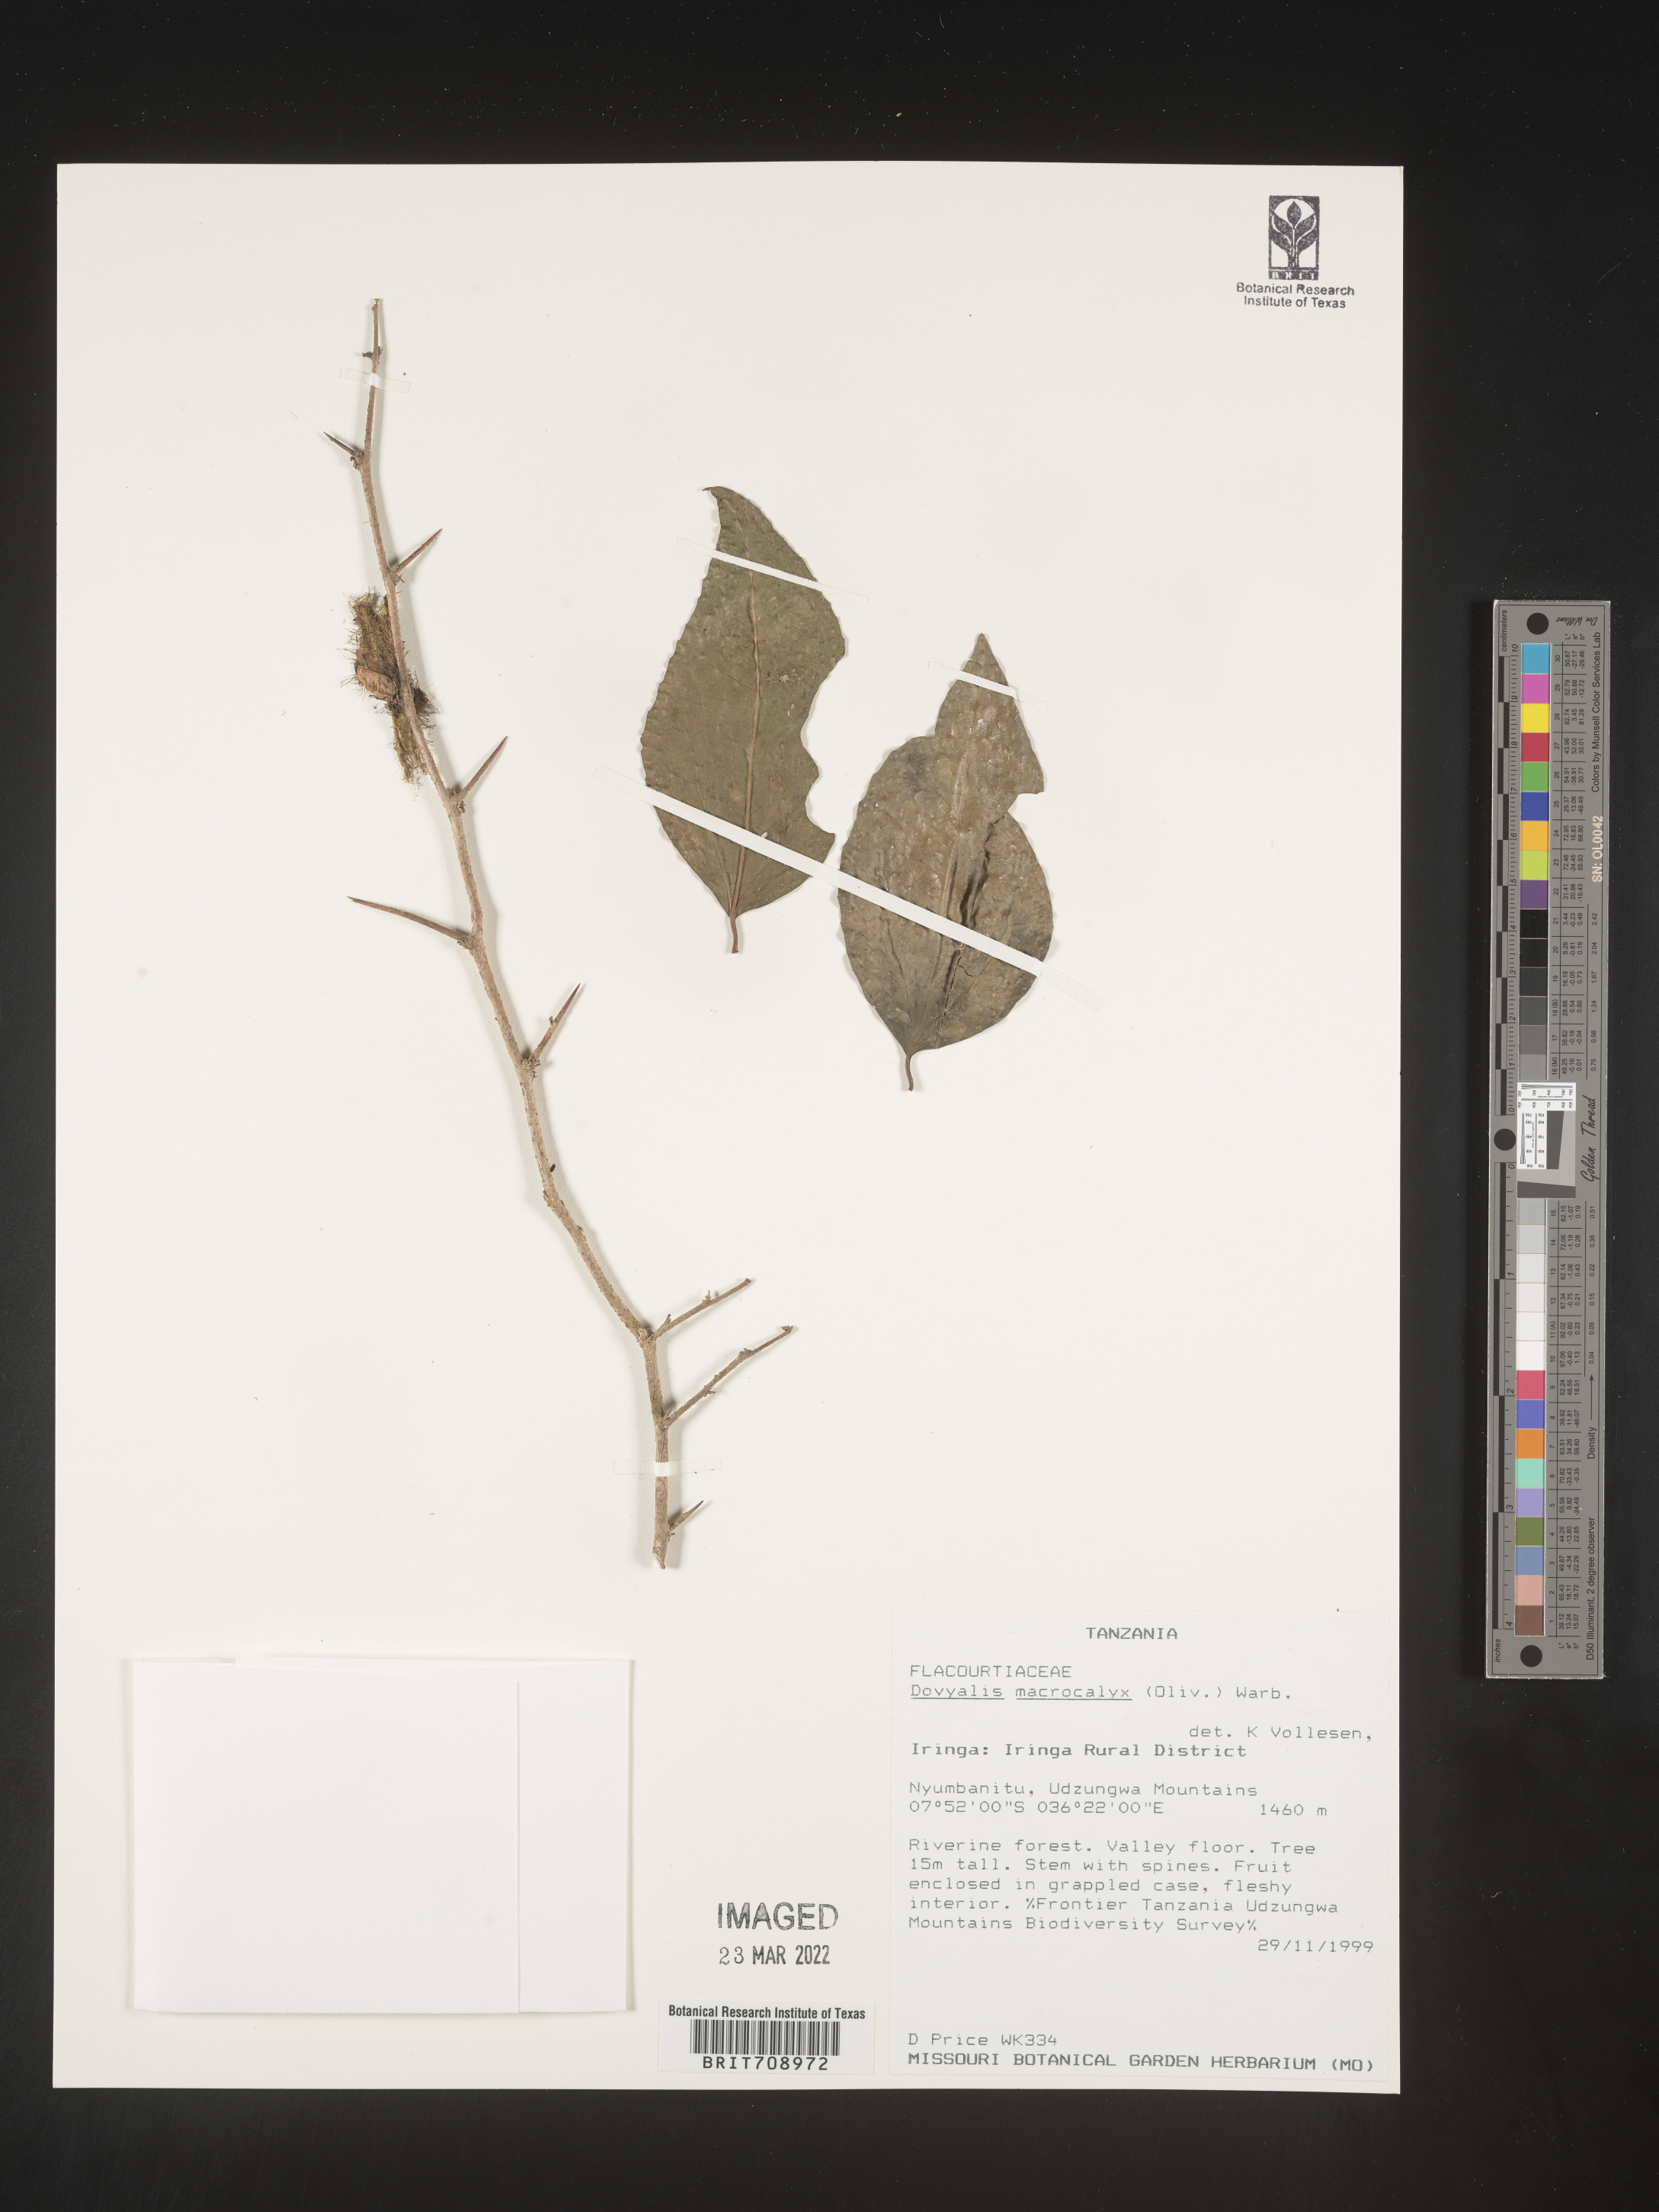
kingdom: Plantae
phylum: Tracheophyta
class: Magnoliopsida
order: Malpighiales
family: Salicaceae
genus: Dovyalis
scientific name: Dovyalis
